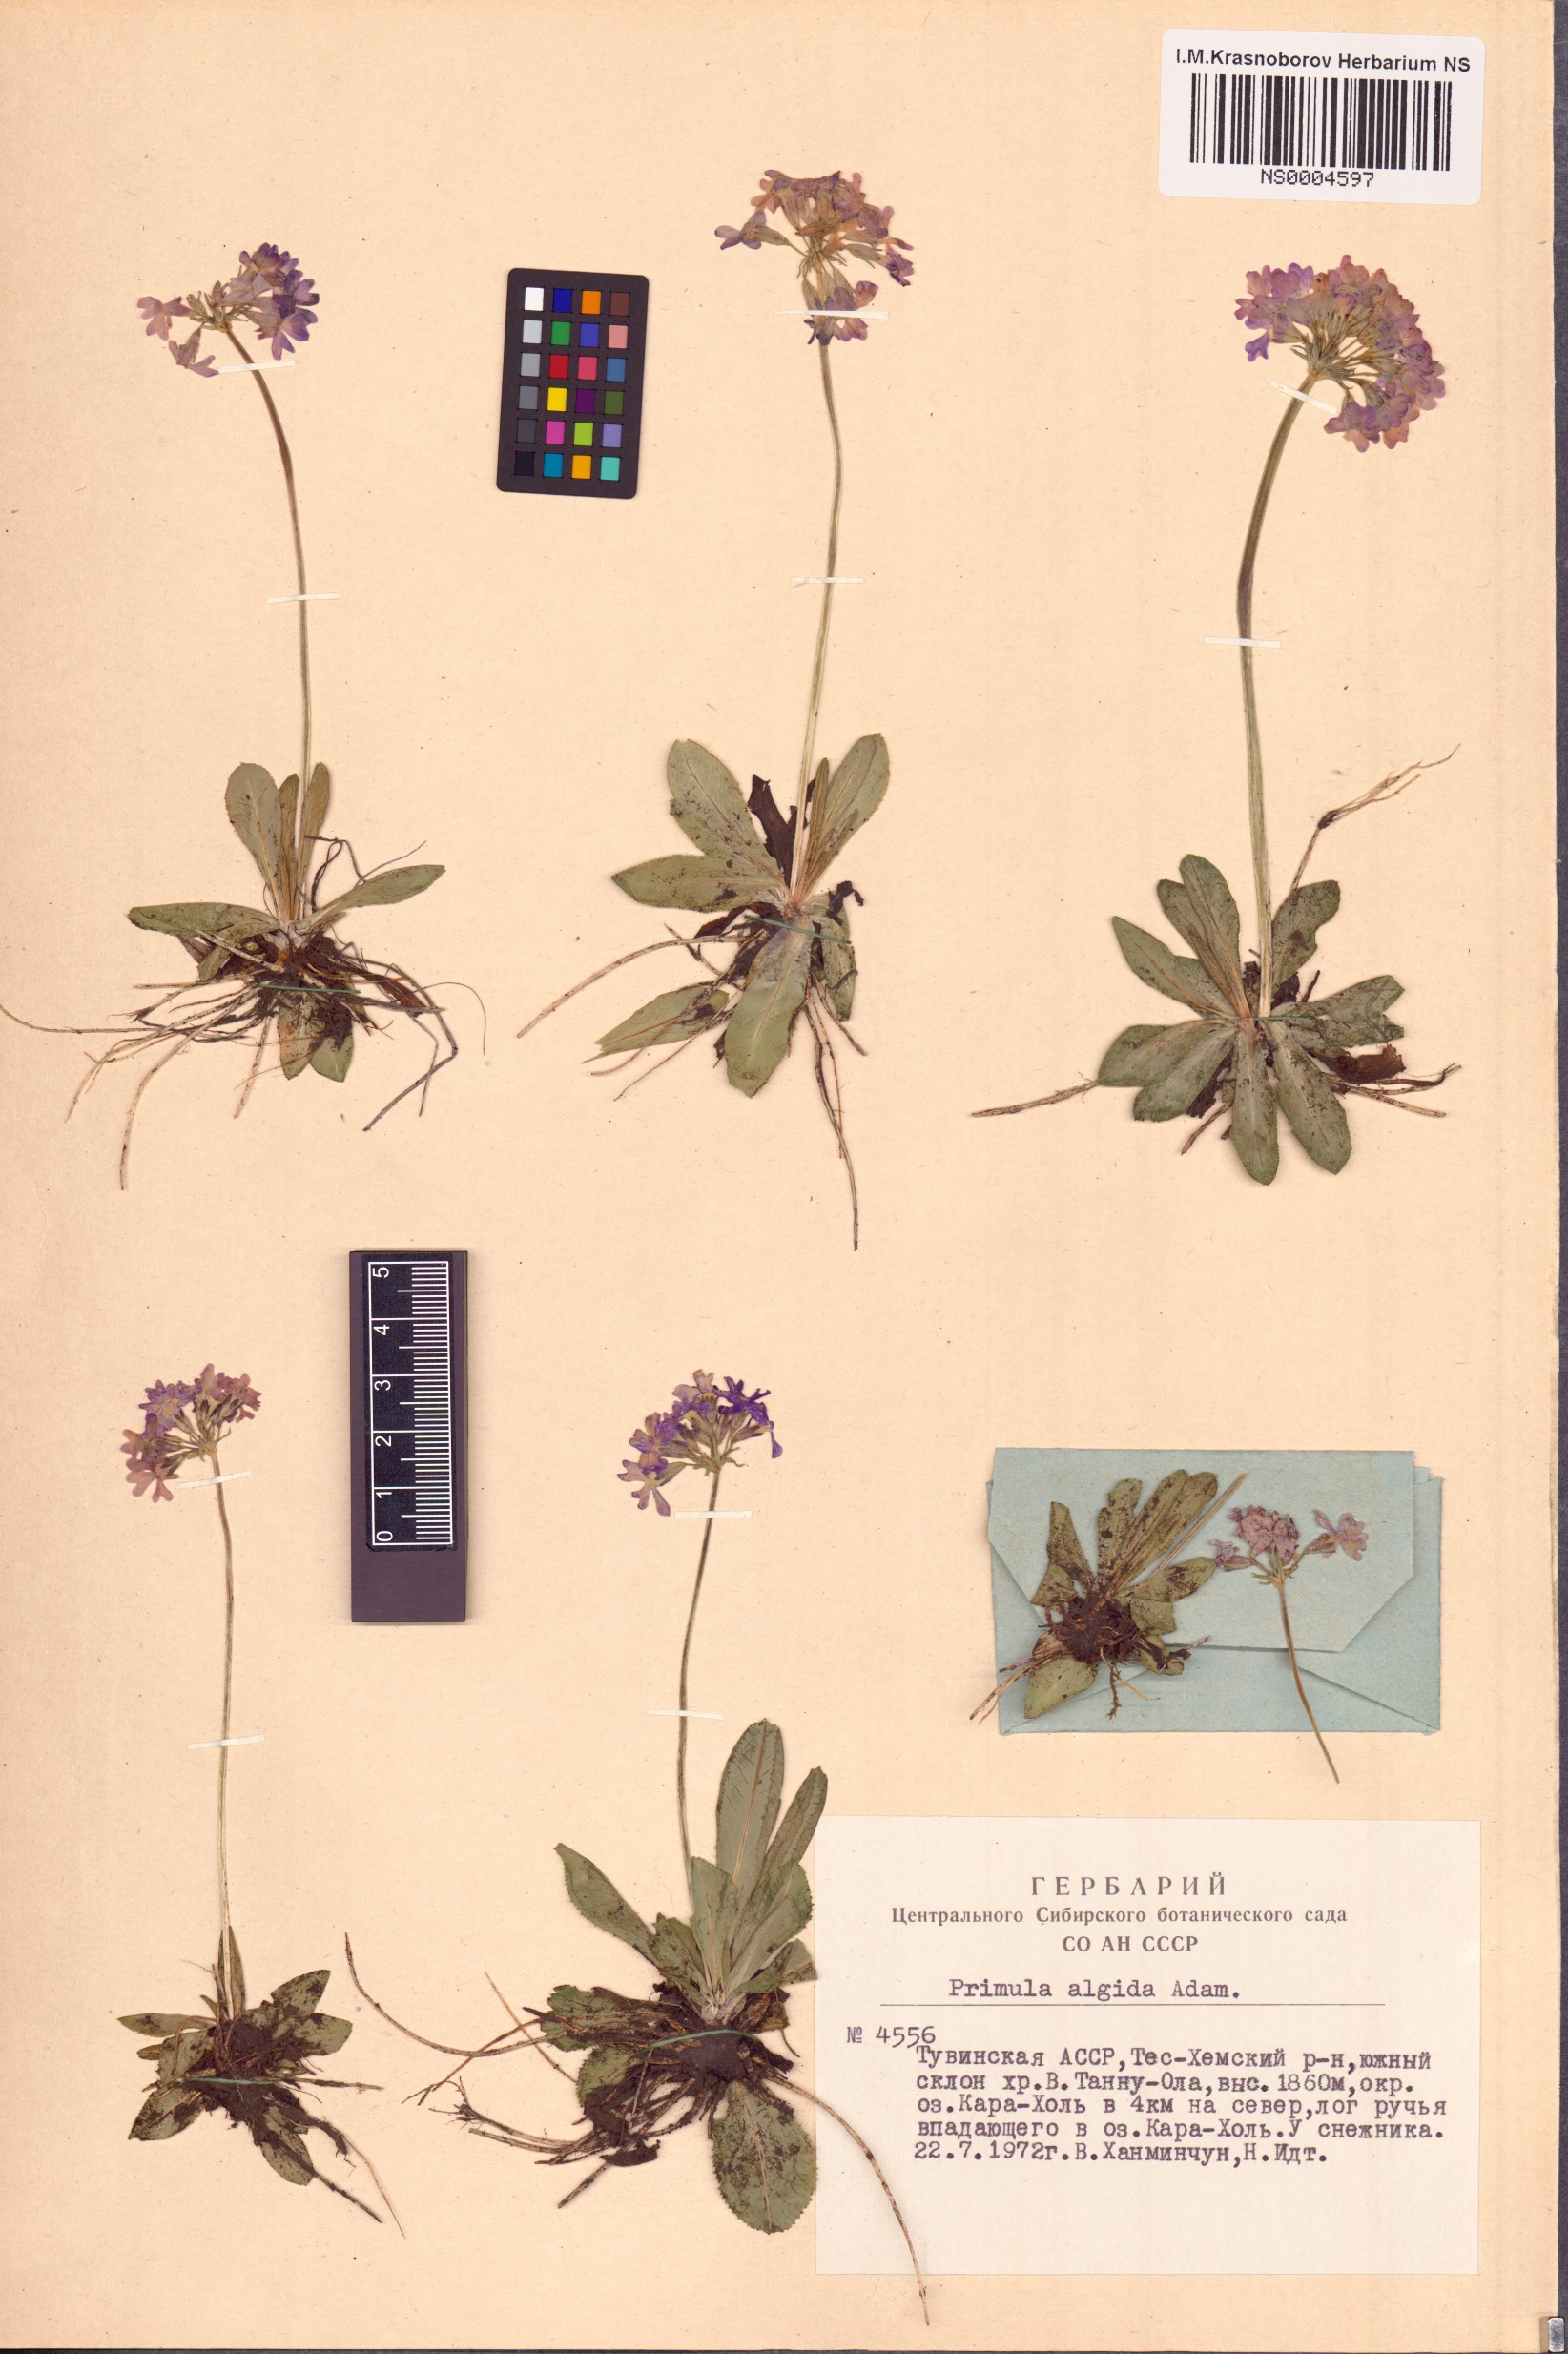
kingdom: Plantae
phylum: Tracheophyta
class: Magnoliopsida
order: Ericales
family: Primulaceae
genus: Primula
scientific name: Primula algida
